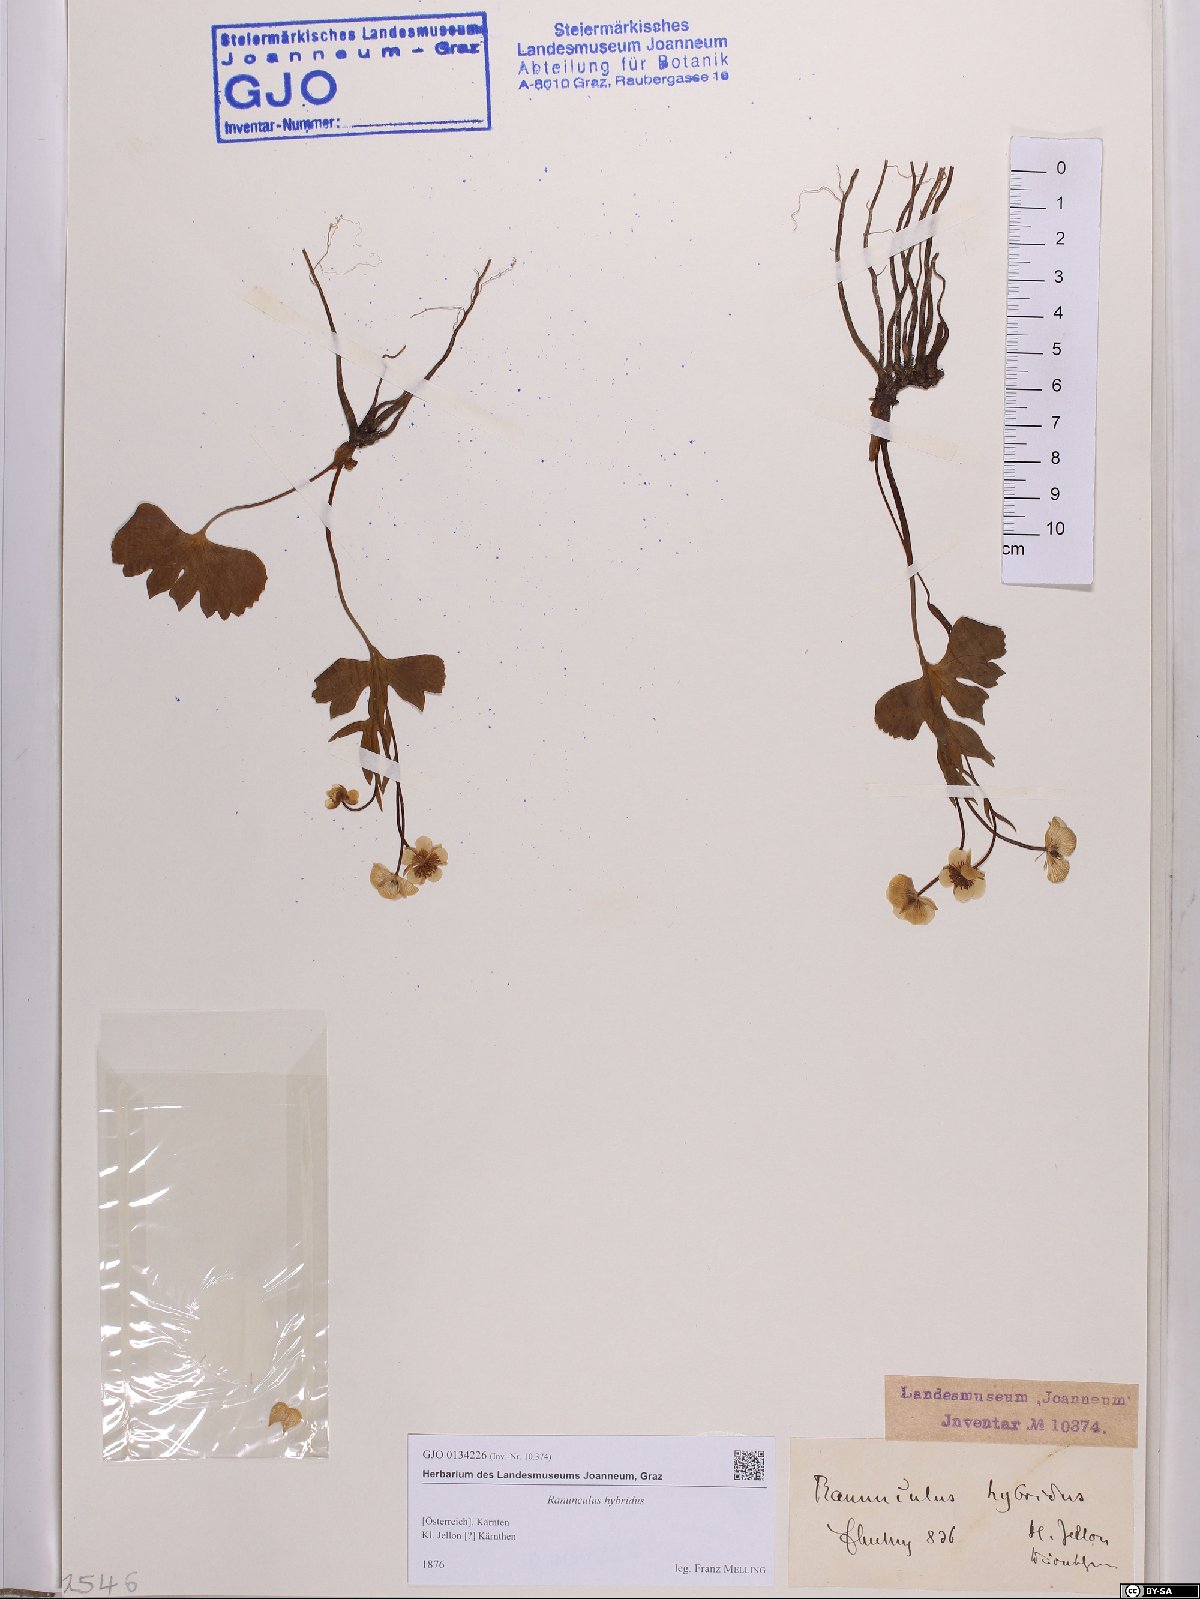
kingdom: Plantae
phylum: Tracheophyta
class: Magnoliopsida
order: Ranunculales
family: Ranunculaceae
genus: Ranunculus
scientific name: Ranunculus hybridus
